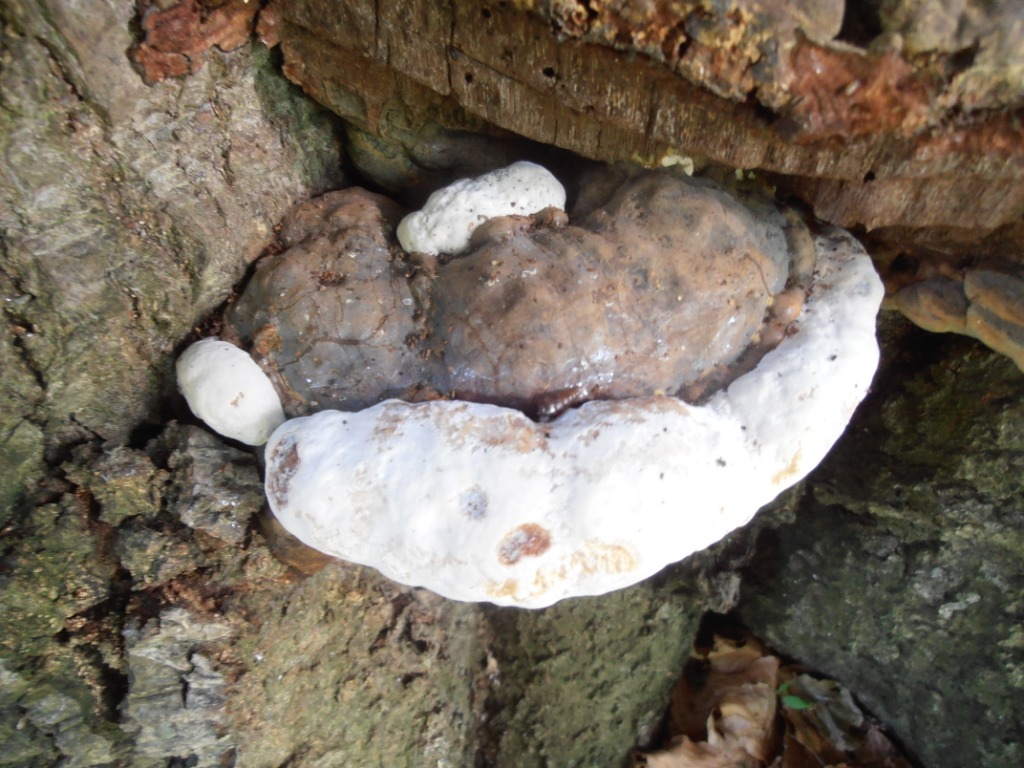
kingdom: Fungi
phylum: Basidiomycota
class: Agaricomycetes
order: Polyporales
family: Polyporaceae
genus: Ganoderma
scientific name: Ganoderma pfeifferi
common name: kobberrød lakporesvamp
